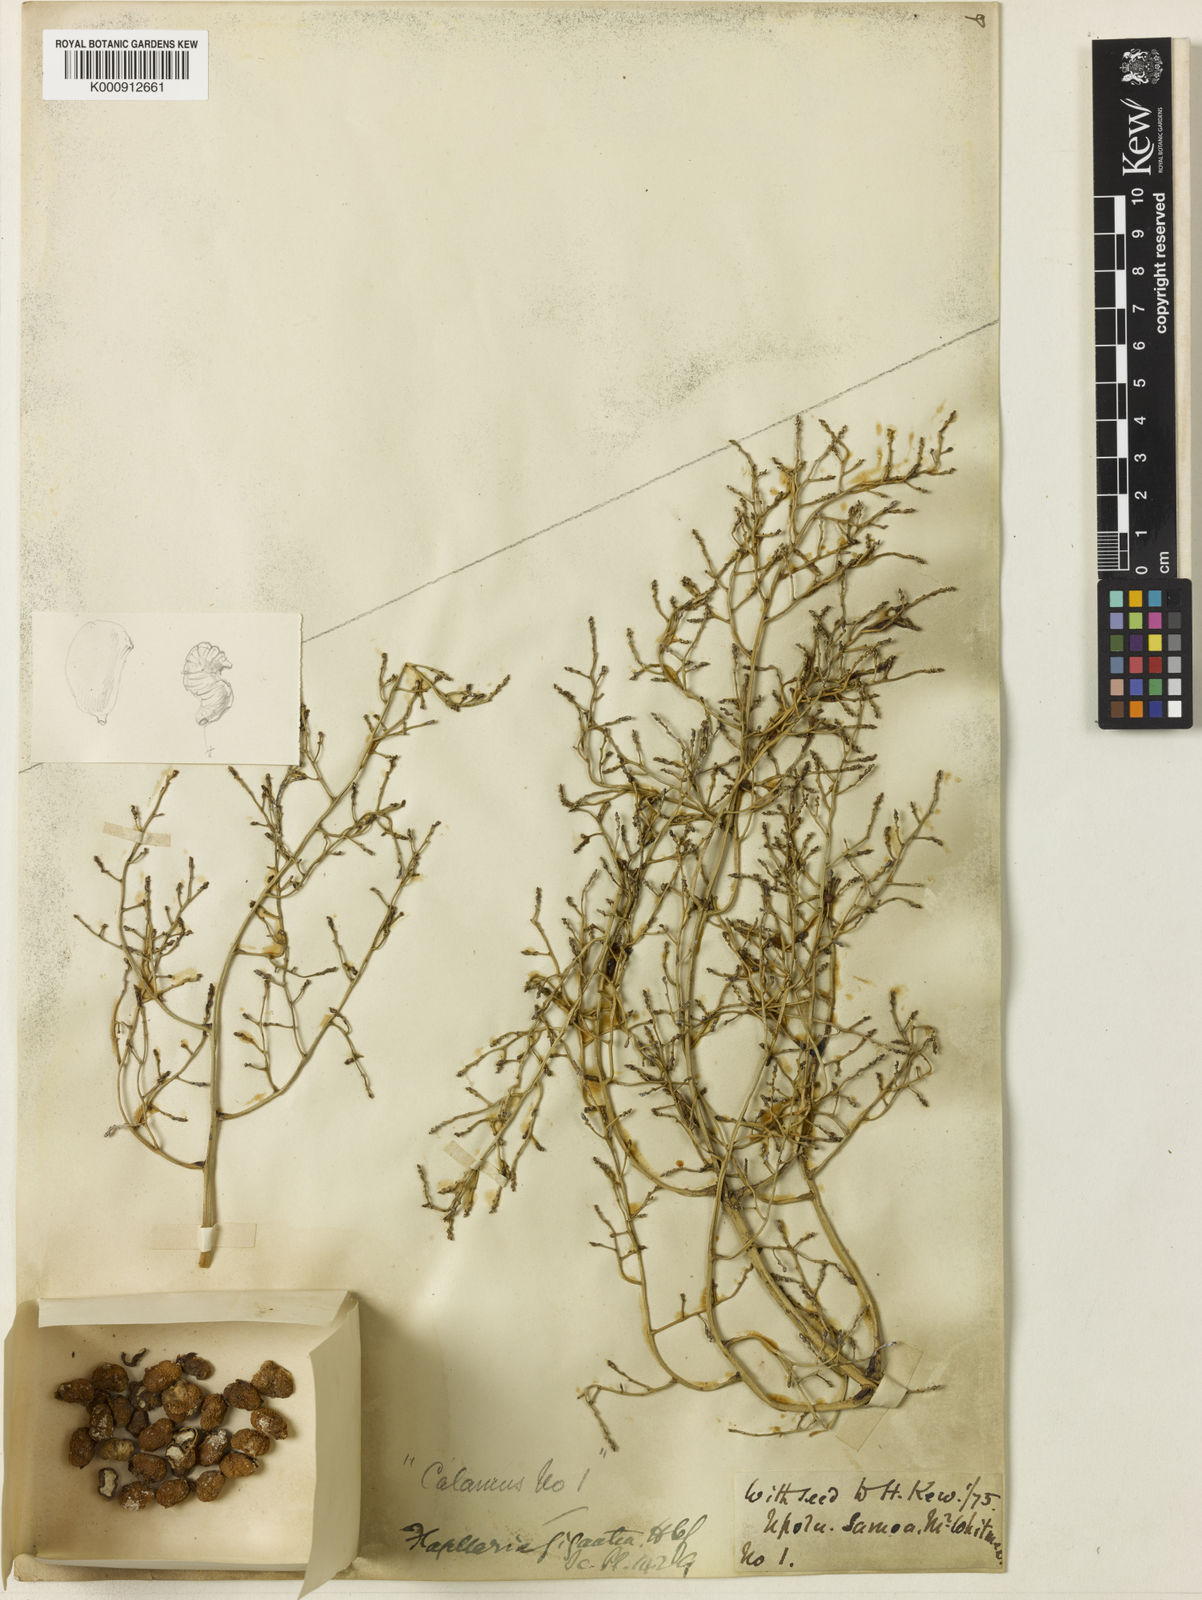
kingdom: Plantae
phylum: Tracheophyta
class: Liliopsida
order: Poales
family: Flagellariaceae
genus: Flagellaria
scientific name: Flagellaria gigantea
